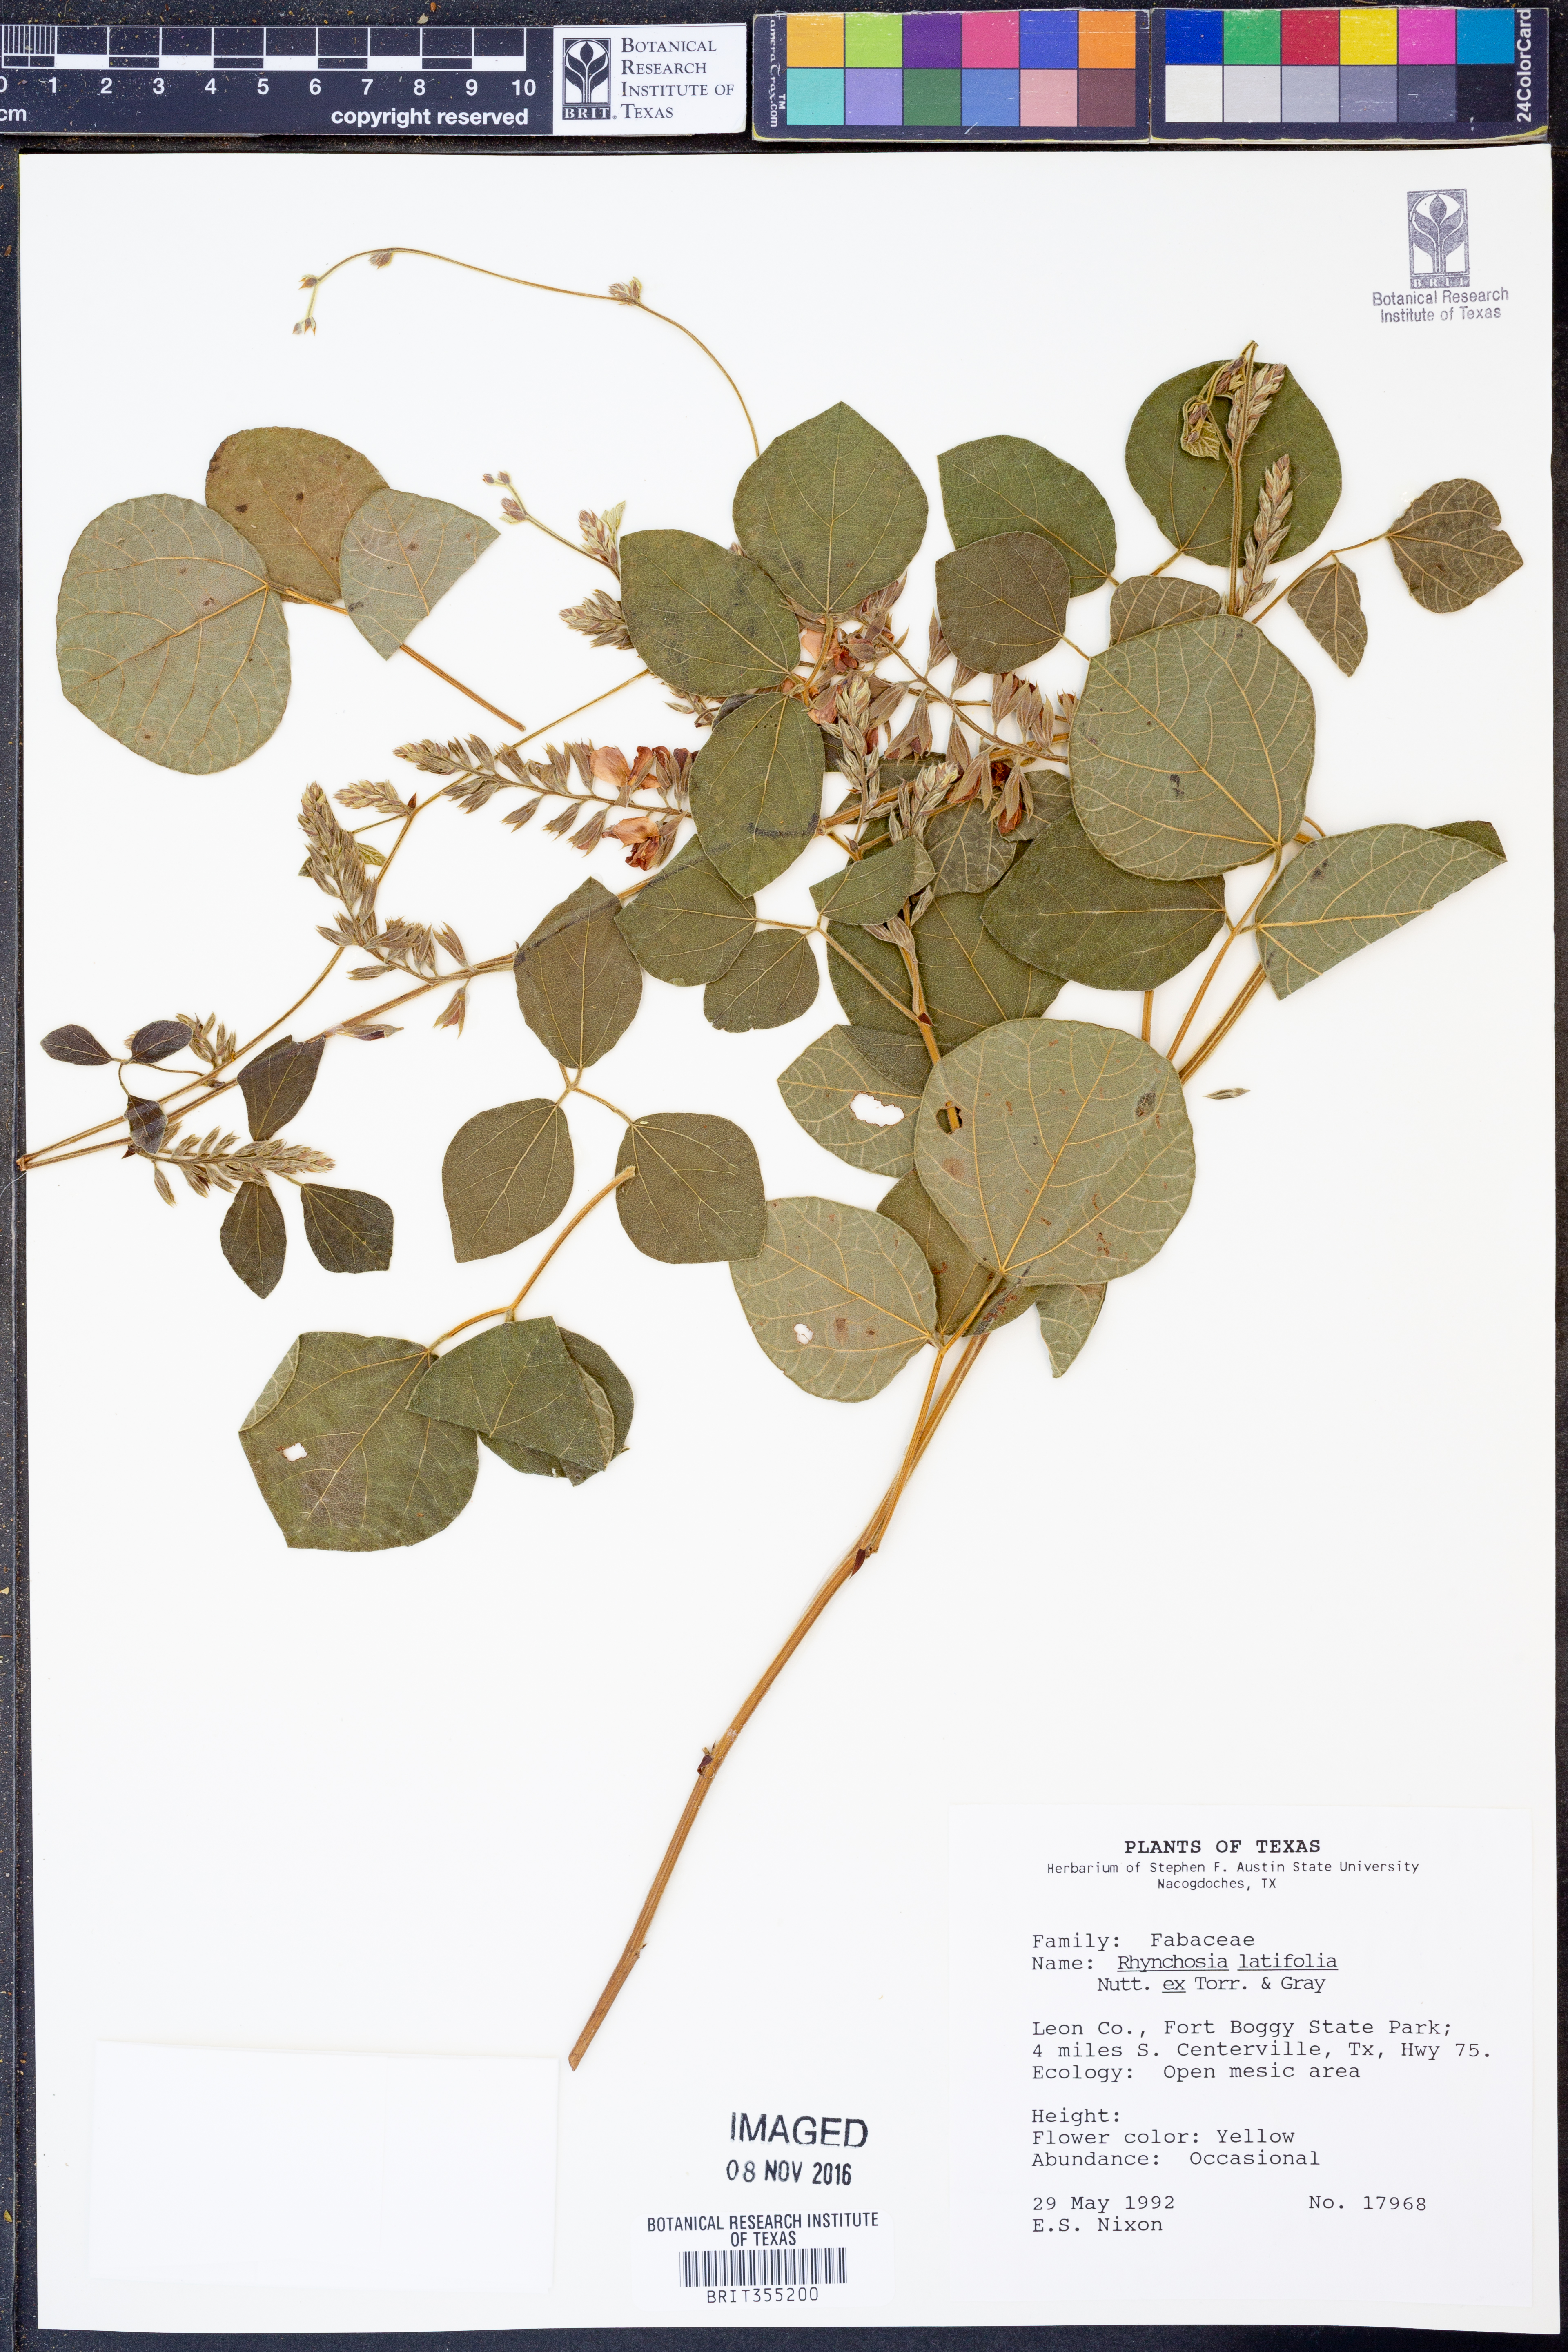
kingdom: Plantae
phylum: Tracheophyta
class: Magnoliopsida
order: Fabales
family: Fabaceae
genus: Rhynchosia
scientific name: Rhynchosia latifolia
